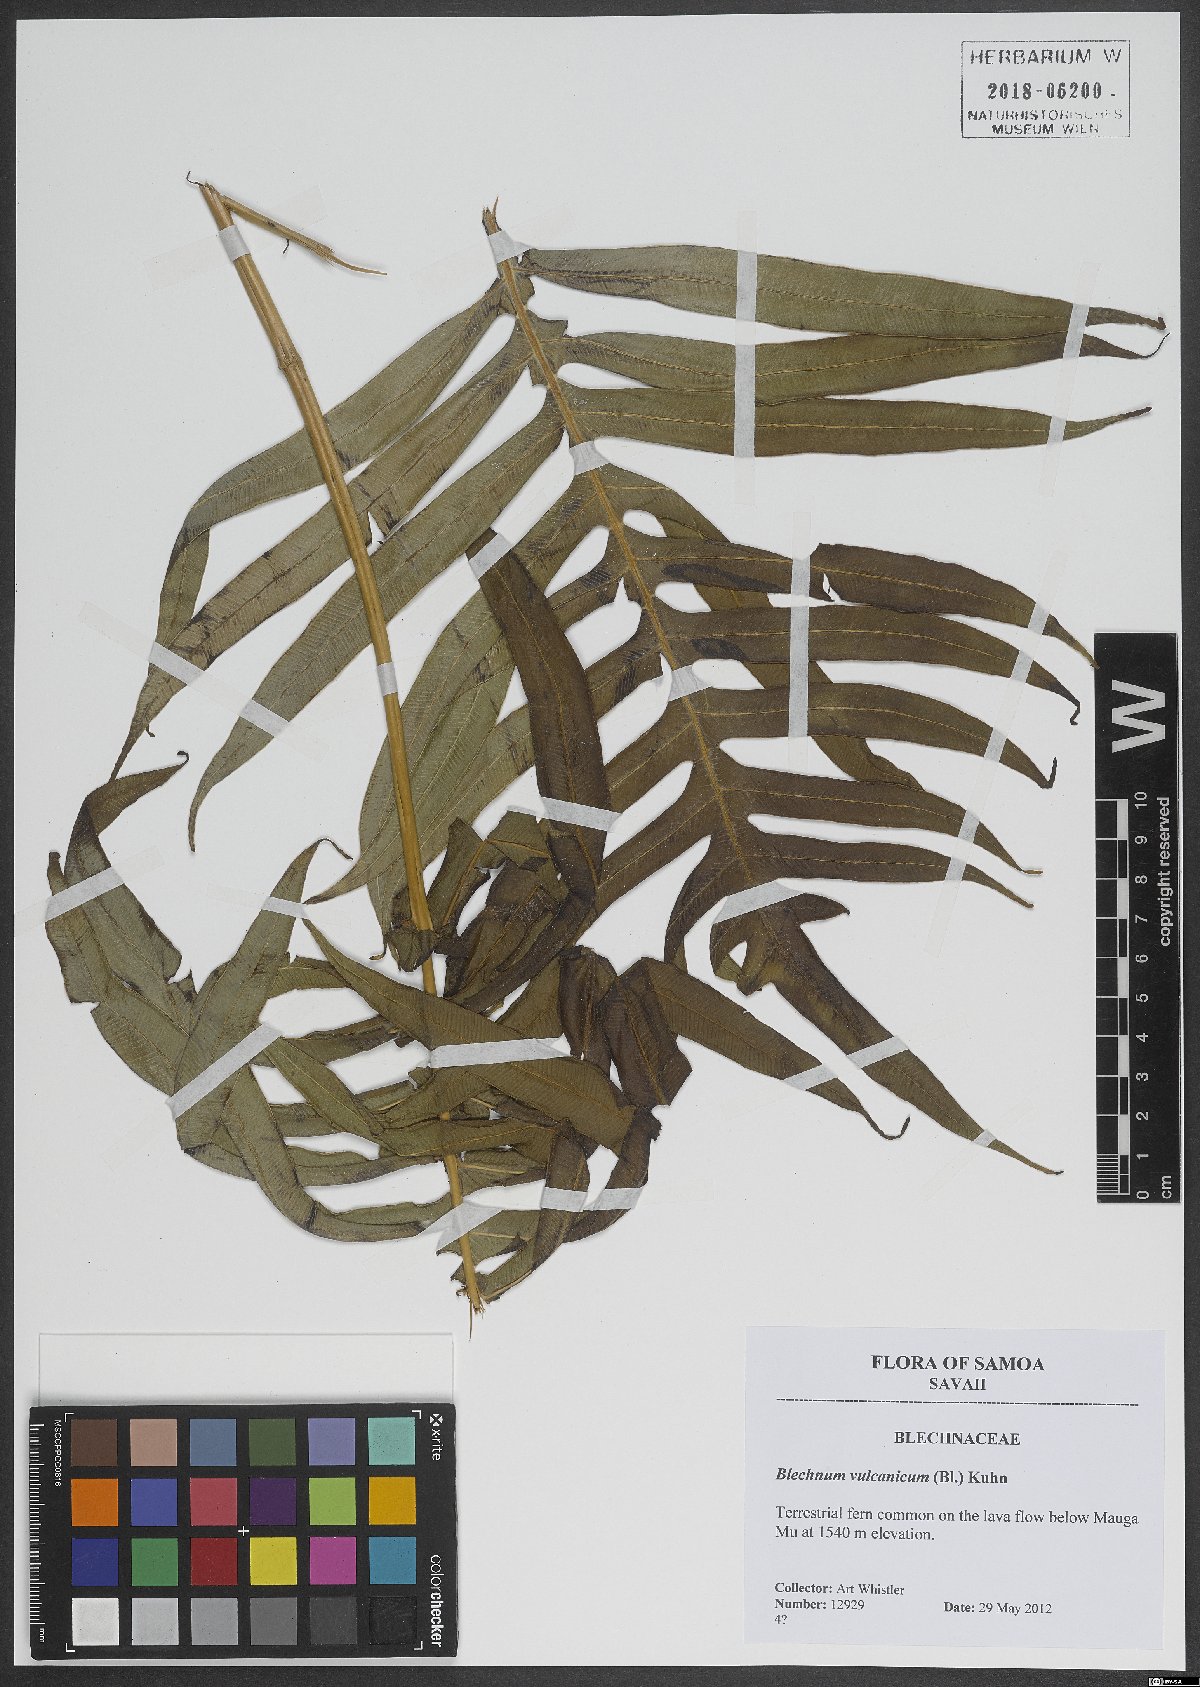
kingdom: Plantae
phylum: Tracheophyta
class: Polypodiopsida
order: Polypodiales
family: Blechnaceae
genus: Cranfillia
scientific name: Cranfillia vulcanica
